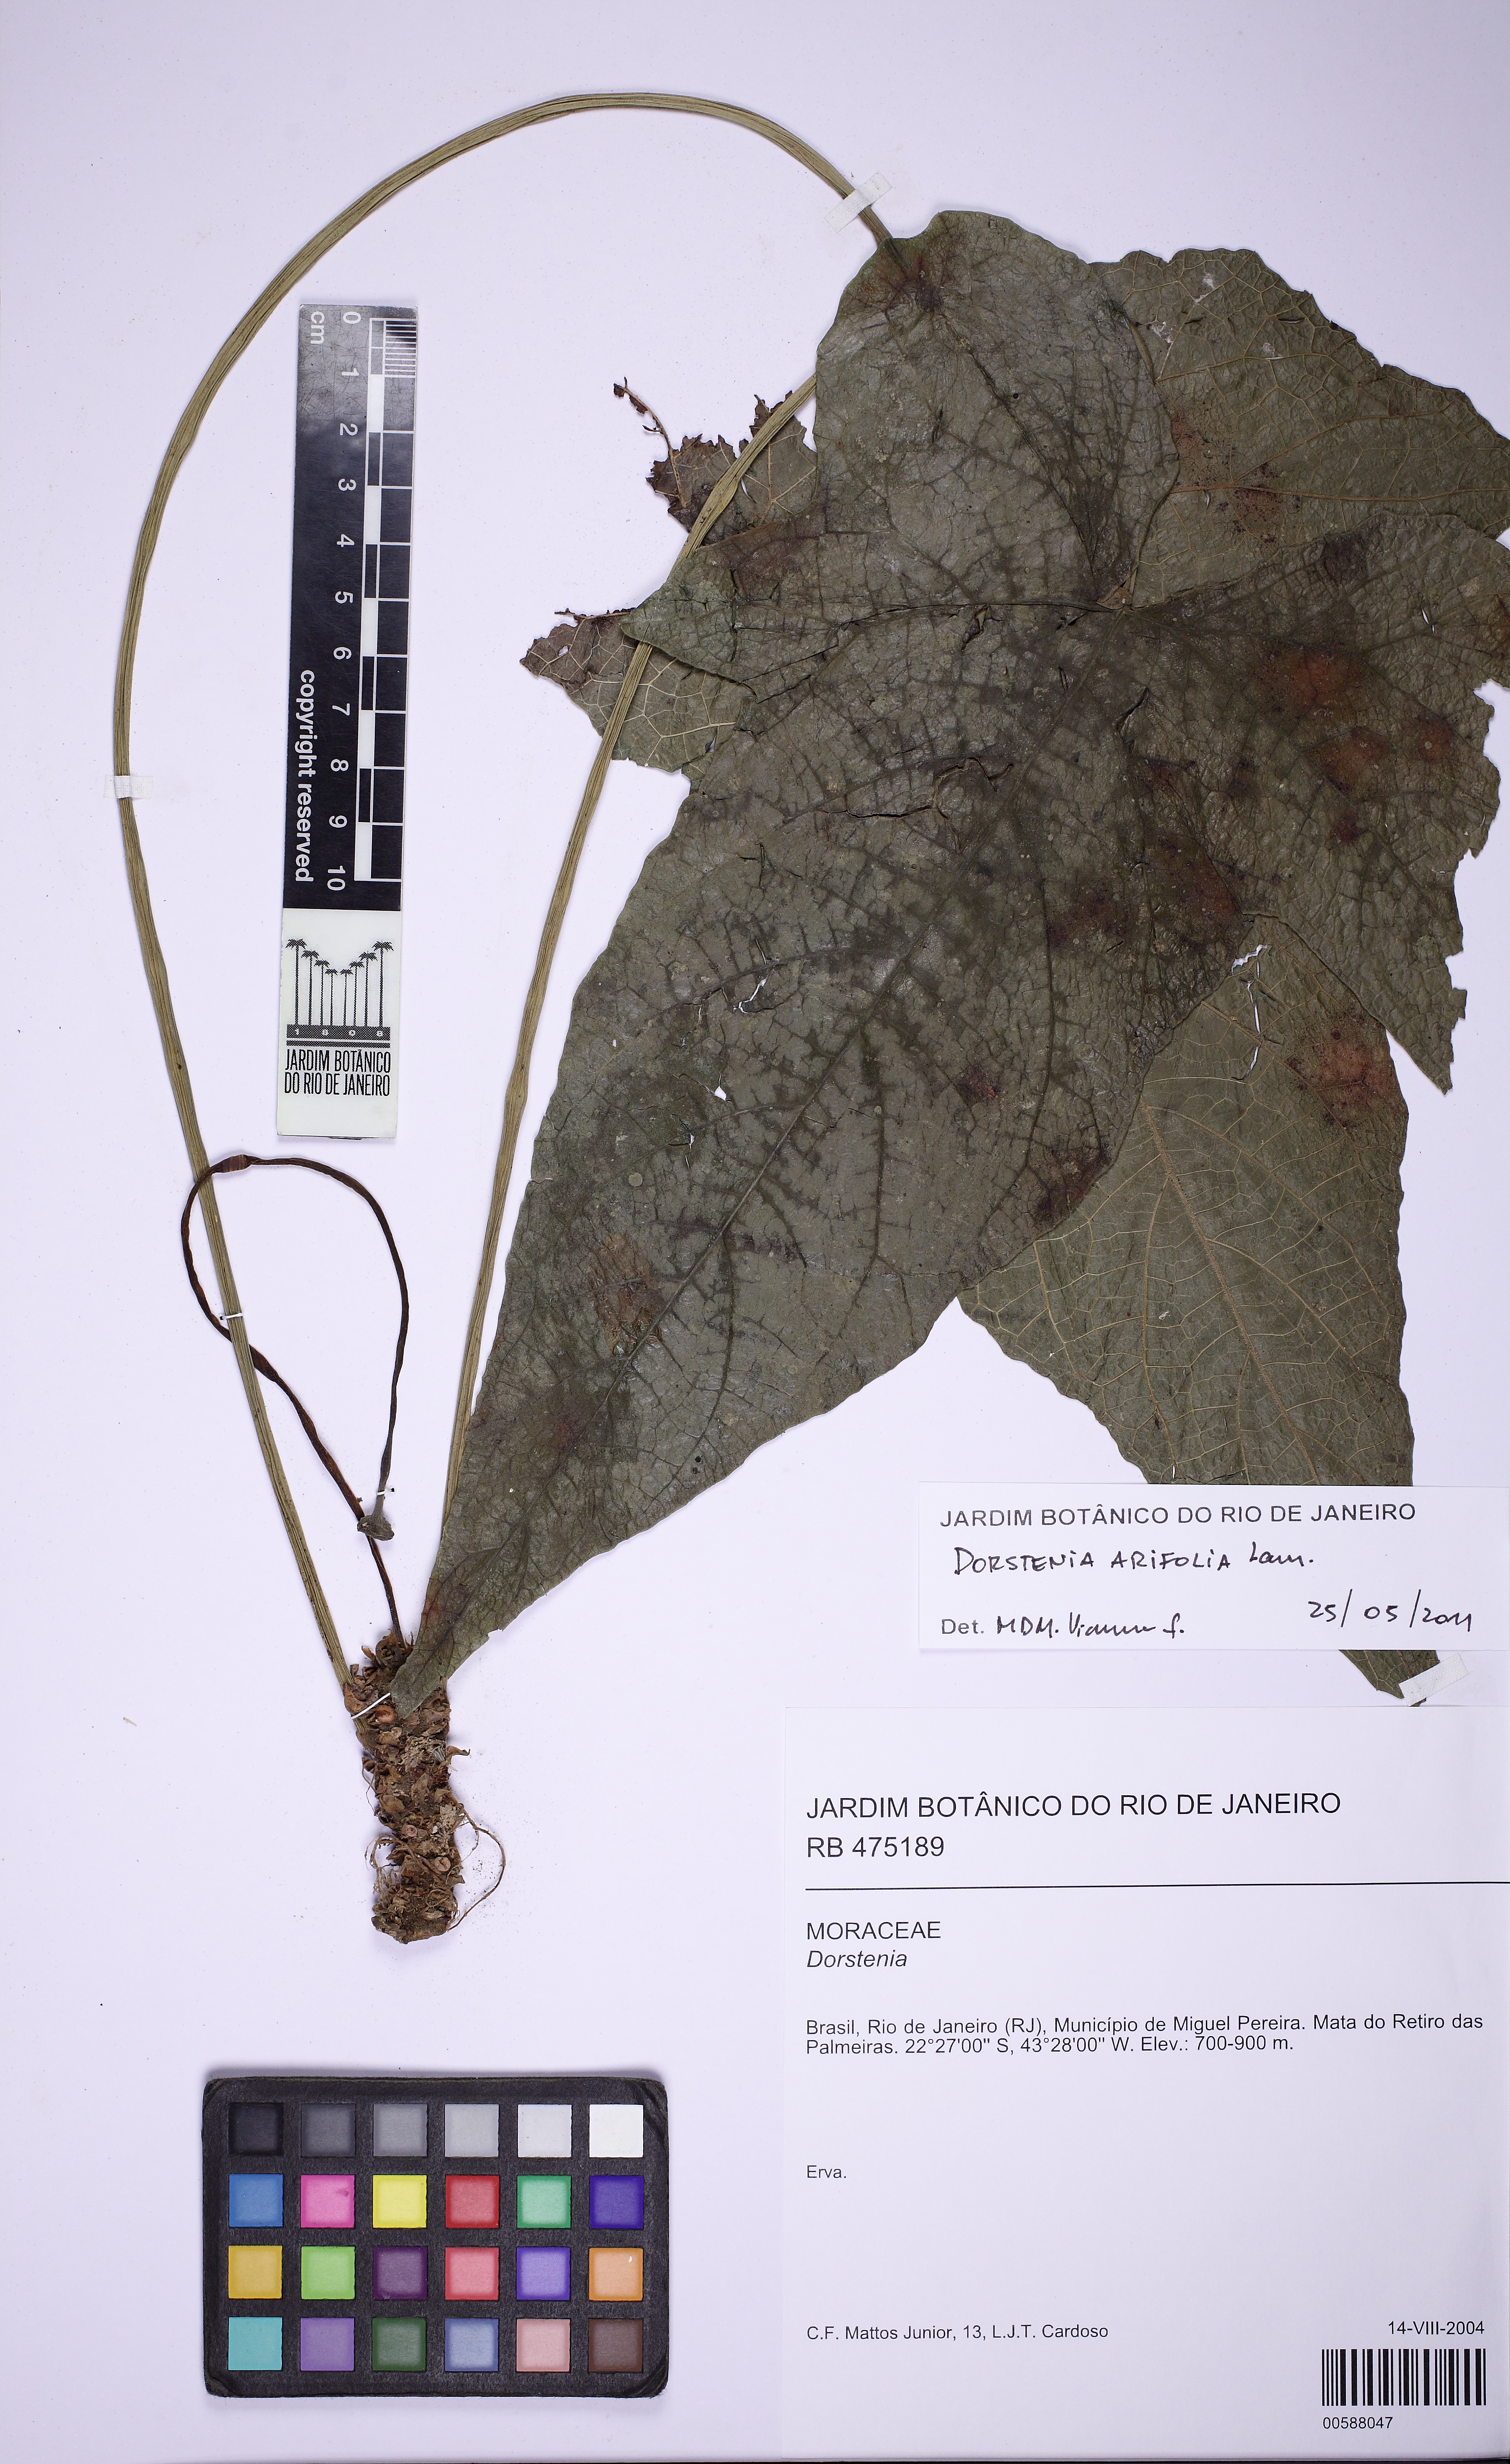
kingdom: Plantae
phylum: Tracheophyta
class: Magnoliopsida
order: Rosales
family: Moraceae
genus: Dorstenia
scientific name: Dorstenia arifolia
